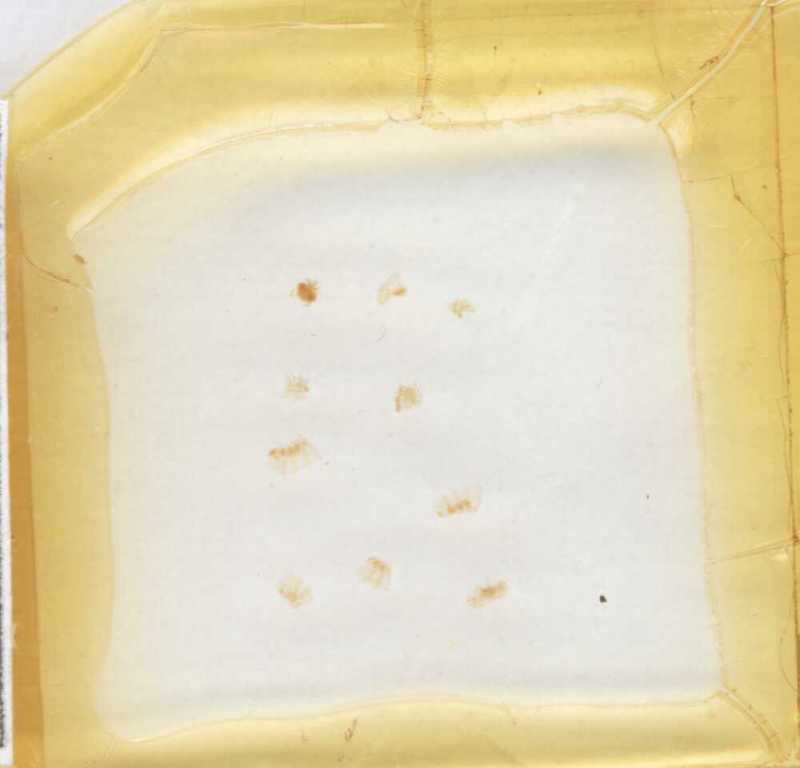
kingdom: Animalia
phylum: Arthropoda
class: Diplopoda
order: Glomerida
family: Glomeridae
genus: Gervaisia
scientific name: Gervaisia gibbula
